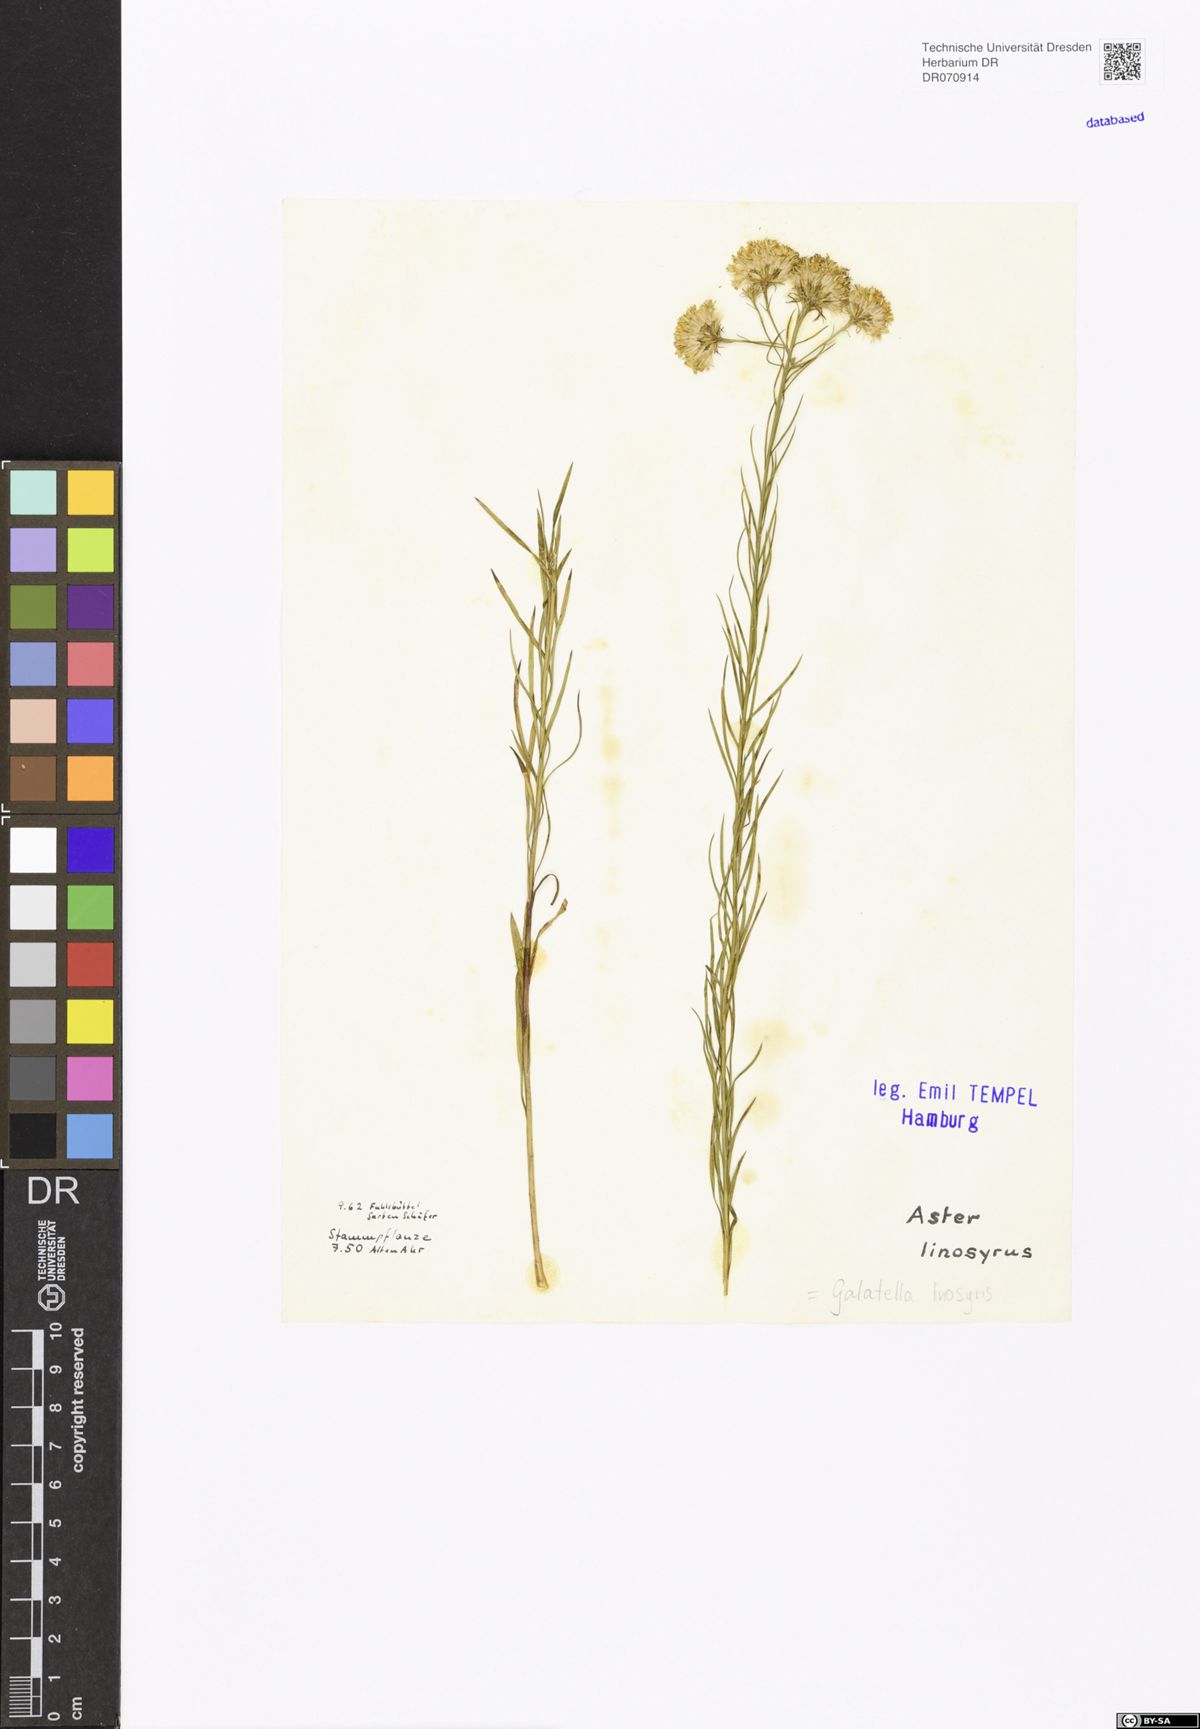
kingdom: Plantae
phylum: Tracheophyta
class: Magnoliopsida
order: Asterales
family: Asteraceae
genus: Galatella
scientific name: Galatella linosyris
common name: Goldilocks aster
